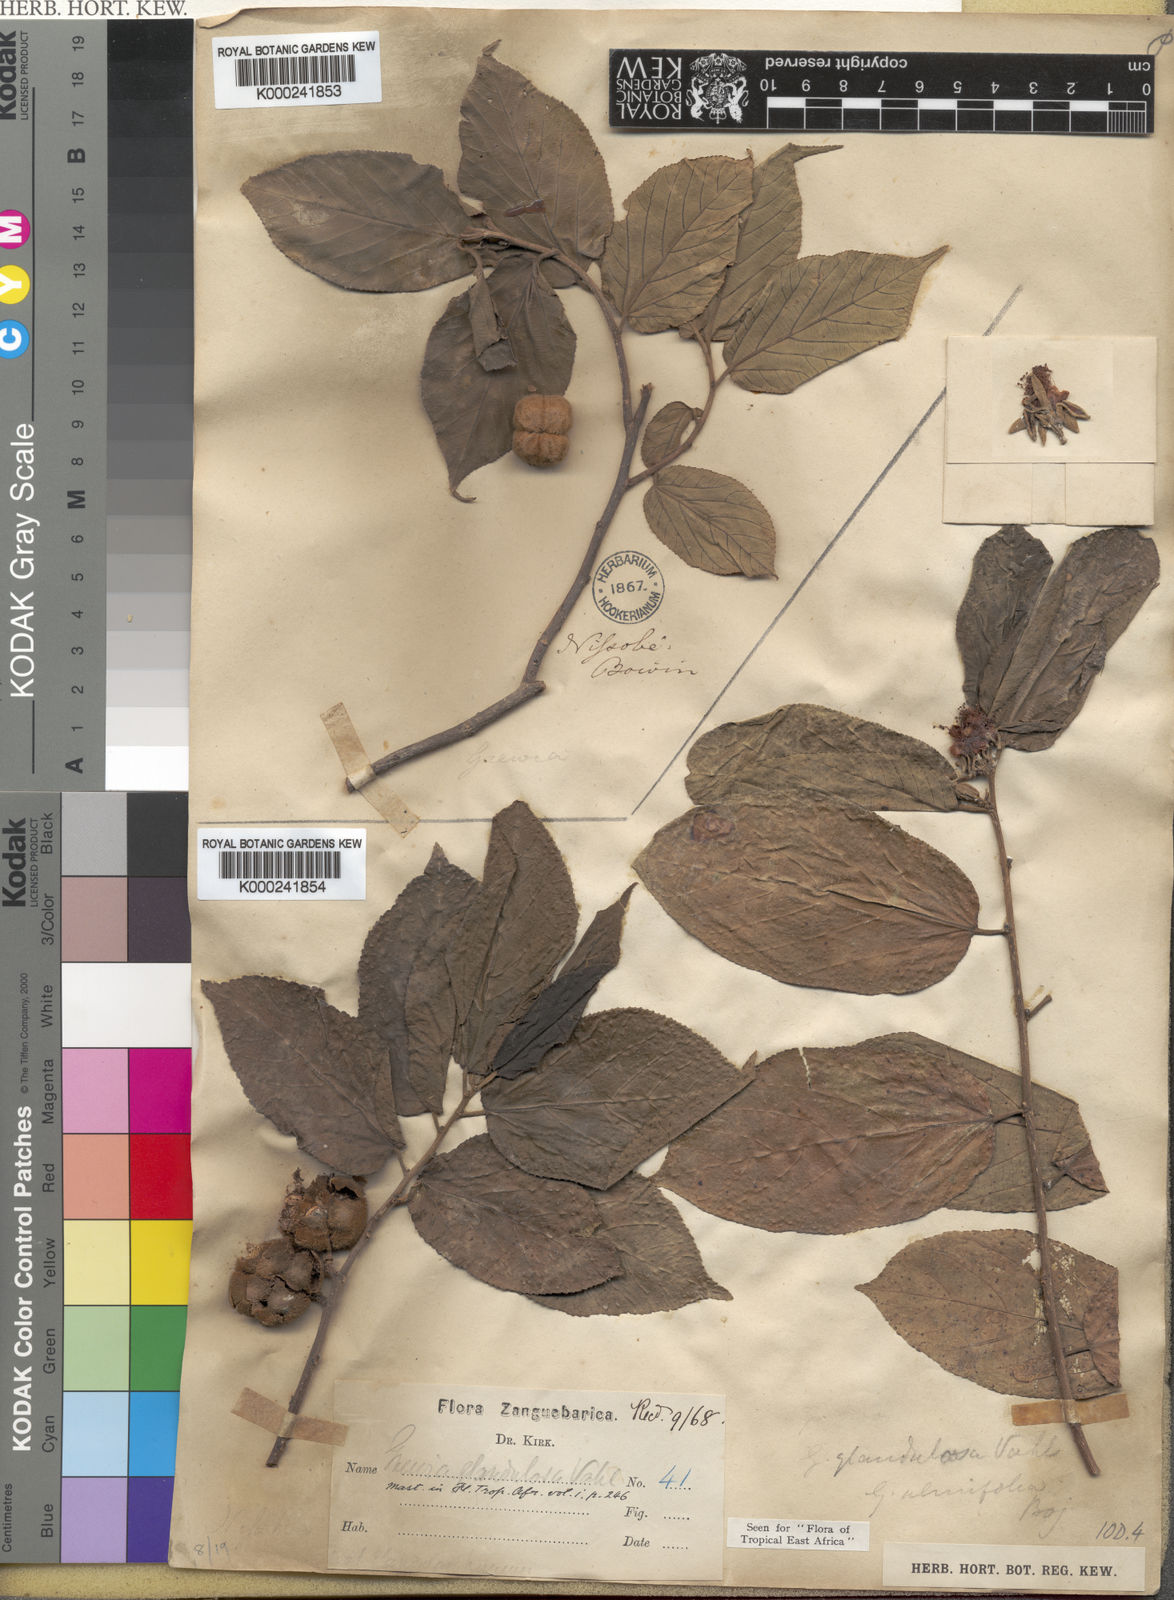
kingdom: Plantae
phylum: Tracheophyta
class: Magnoliopsida
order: Malvales
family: Malvaceae
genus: Grewia
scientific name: Grewia glandulosa
